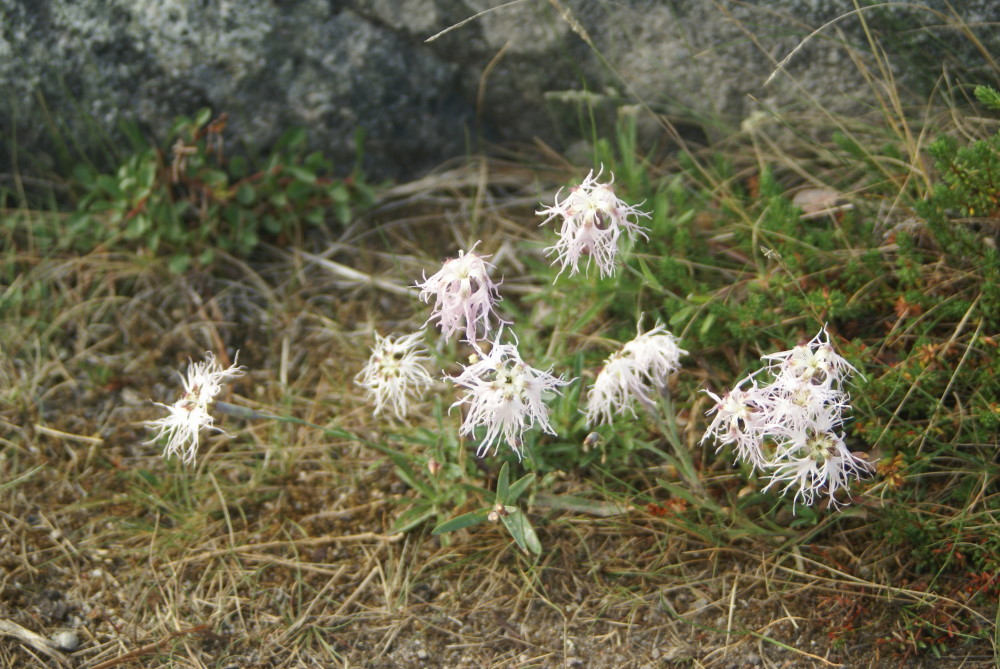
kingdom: Plantae
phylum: Tracheophyta
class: Magnoliopsida
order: Caryophyllales
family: Caryophyllaceae
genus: Dianthus
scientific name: Dianthus superbus
